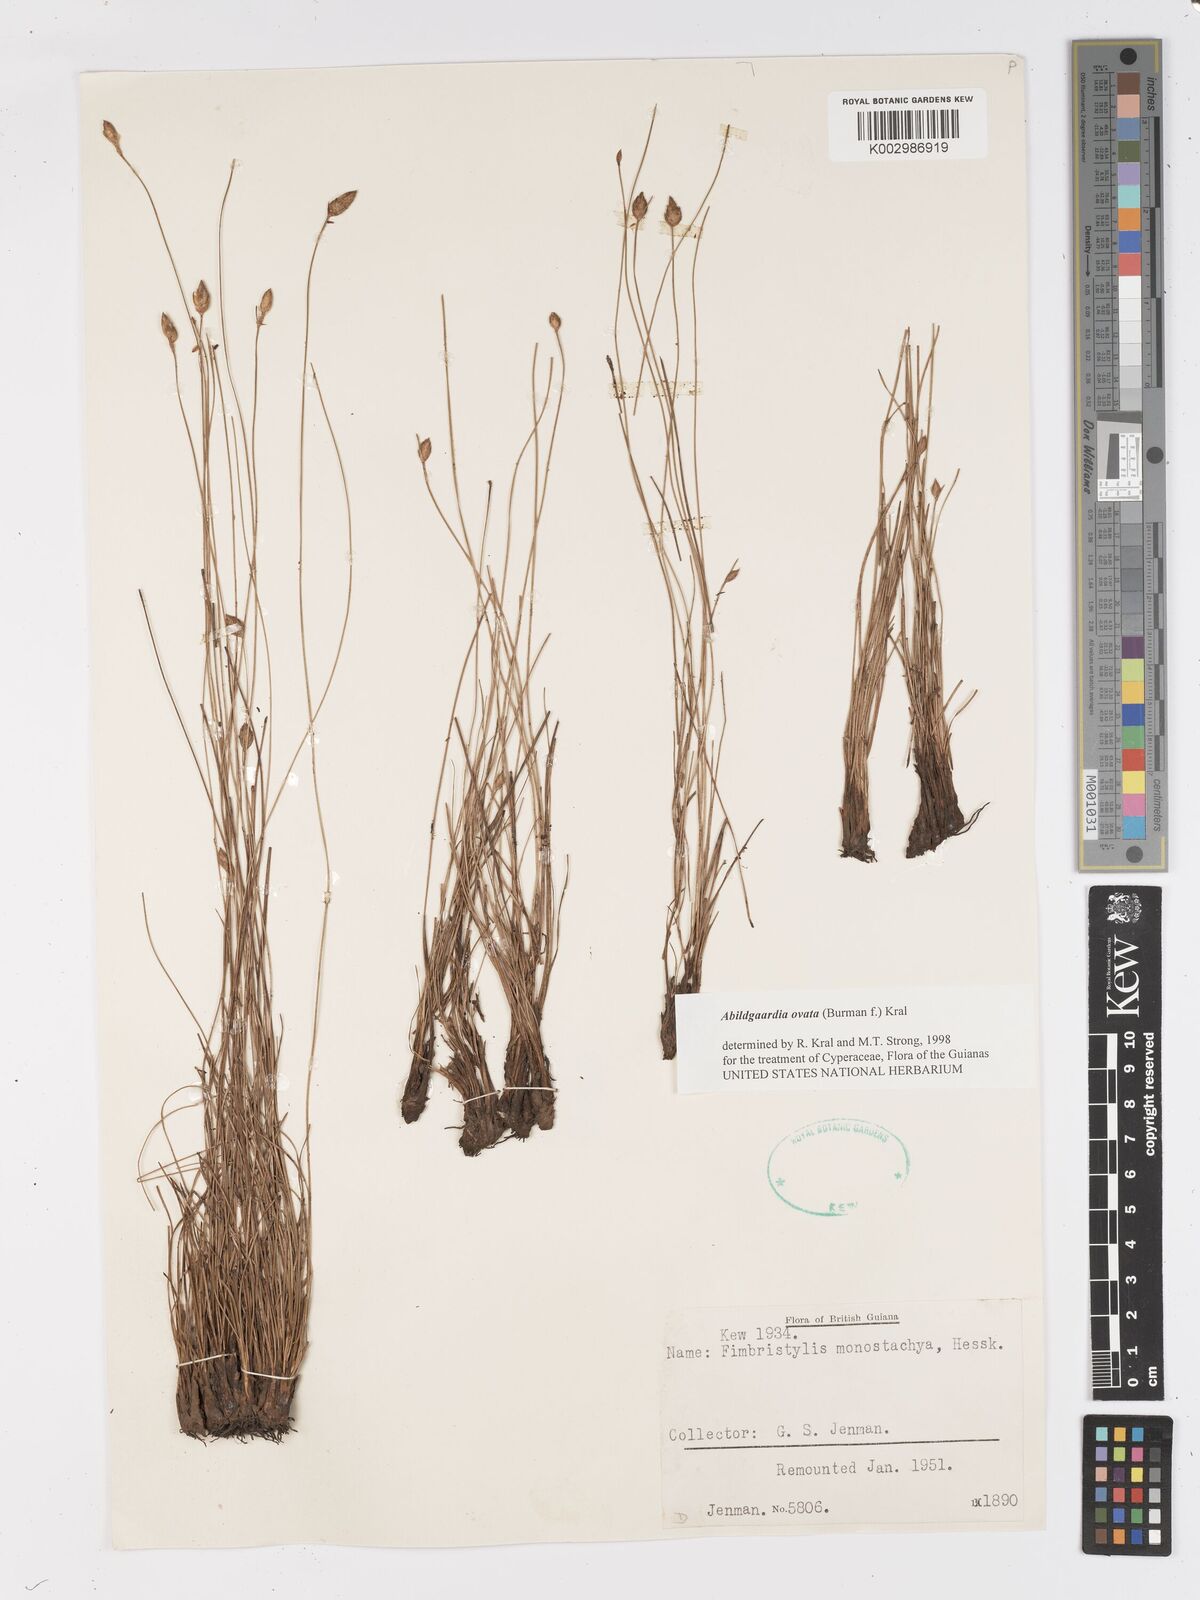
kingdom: Plantae
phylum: Tracheophyta
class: Liliopsida
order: Poales
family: Cyperaceae
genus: Abildgaardia
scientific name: Abildgaardia ovata
